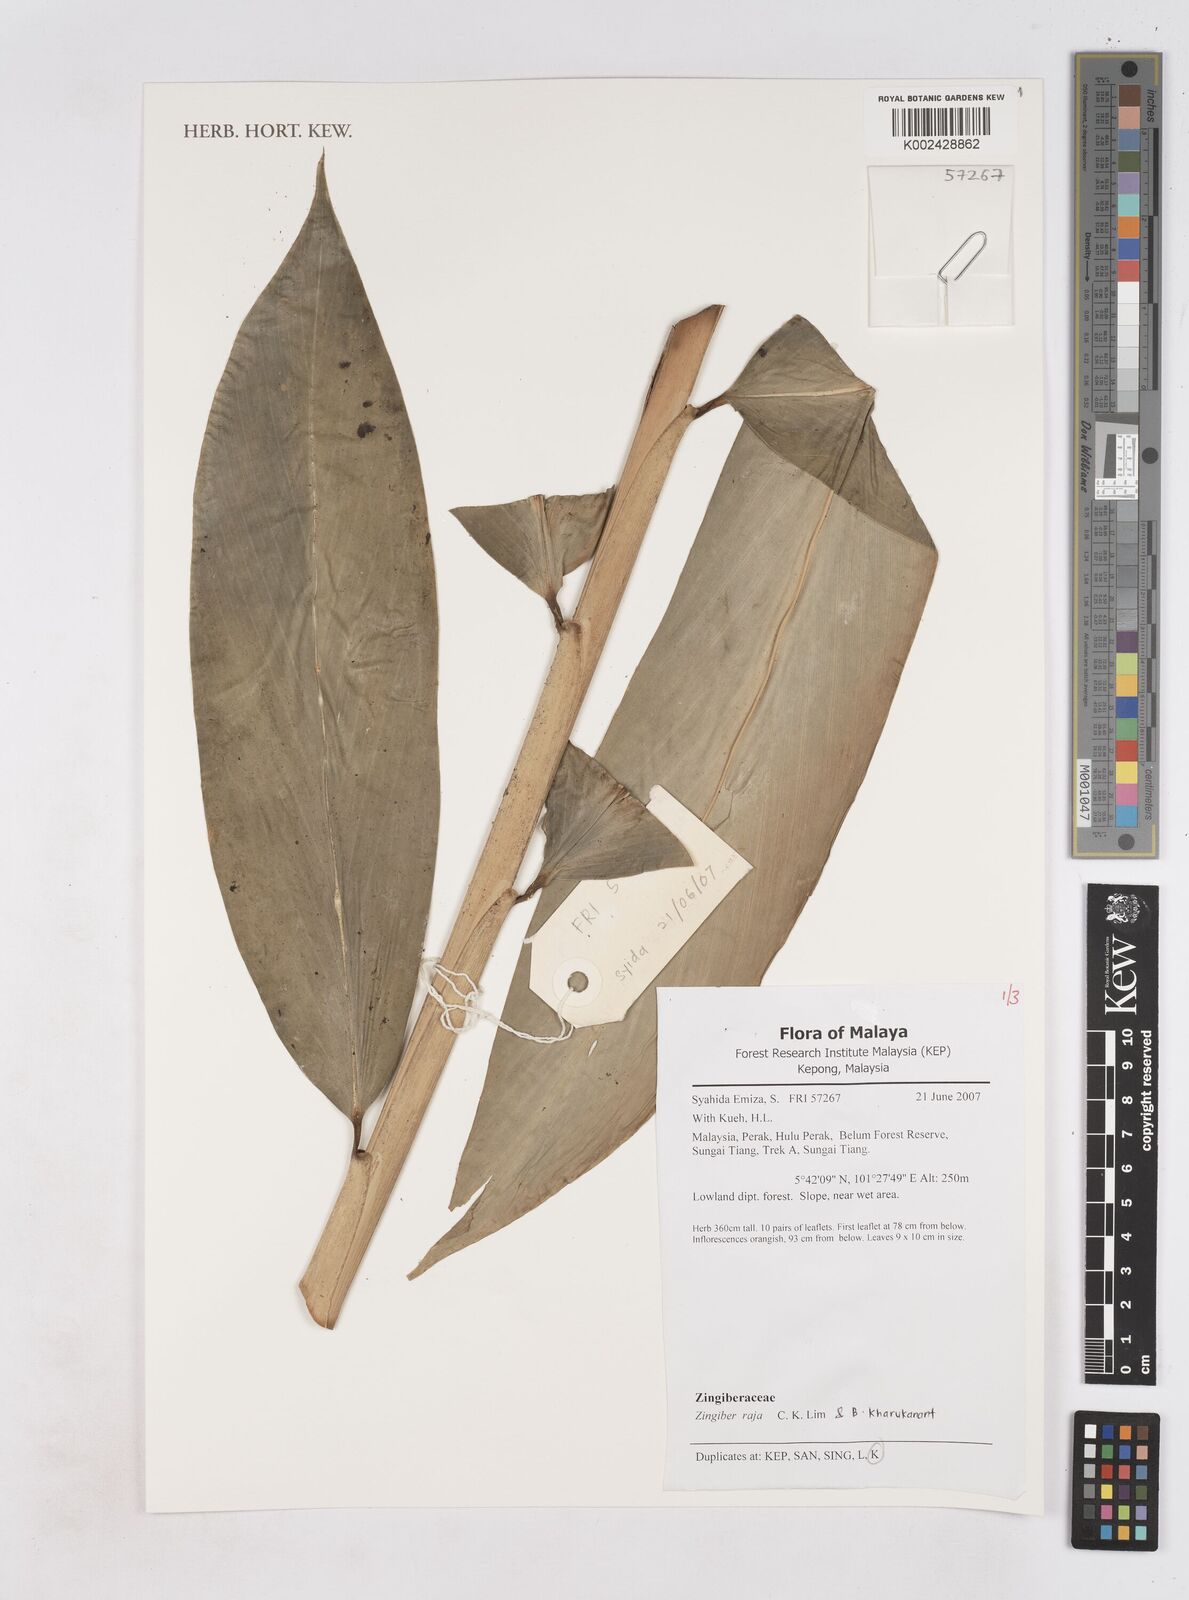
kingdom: Plantae
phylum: Tracheophyta
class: Liliopsida
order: Zingiberales
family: Zingiberaceae
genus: Zingiber
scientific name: Zingiber raja
